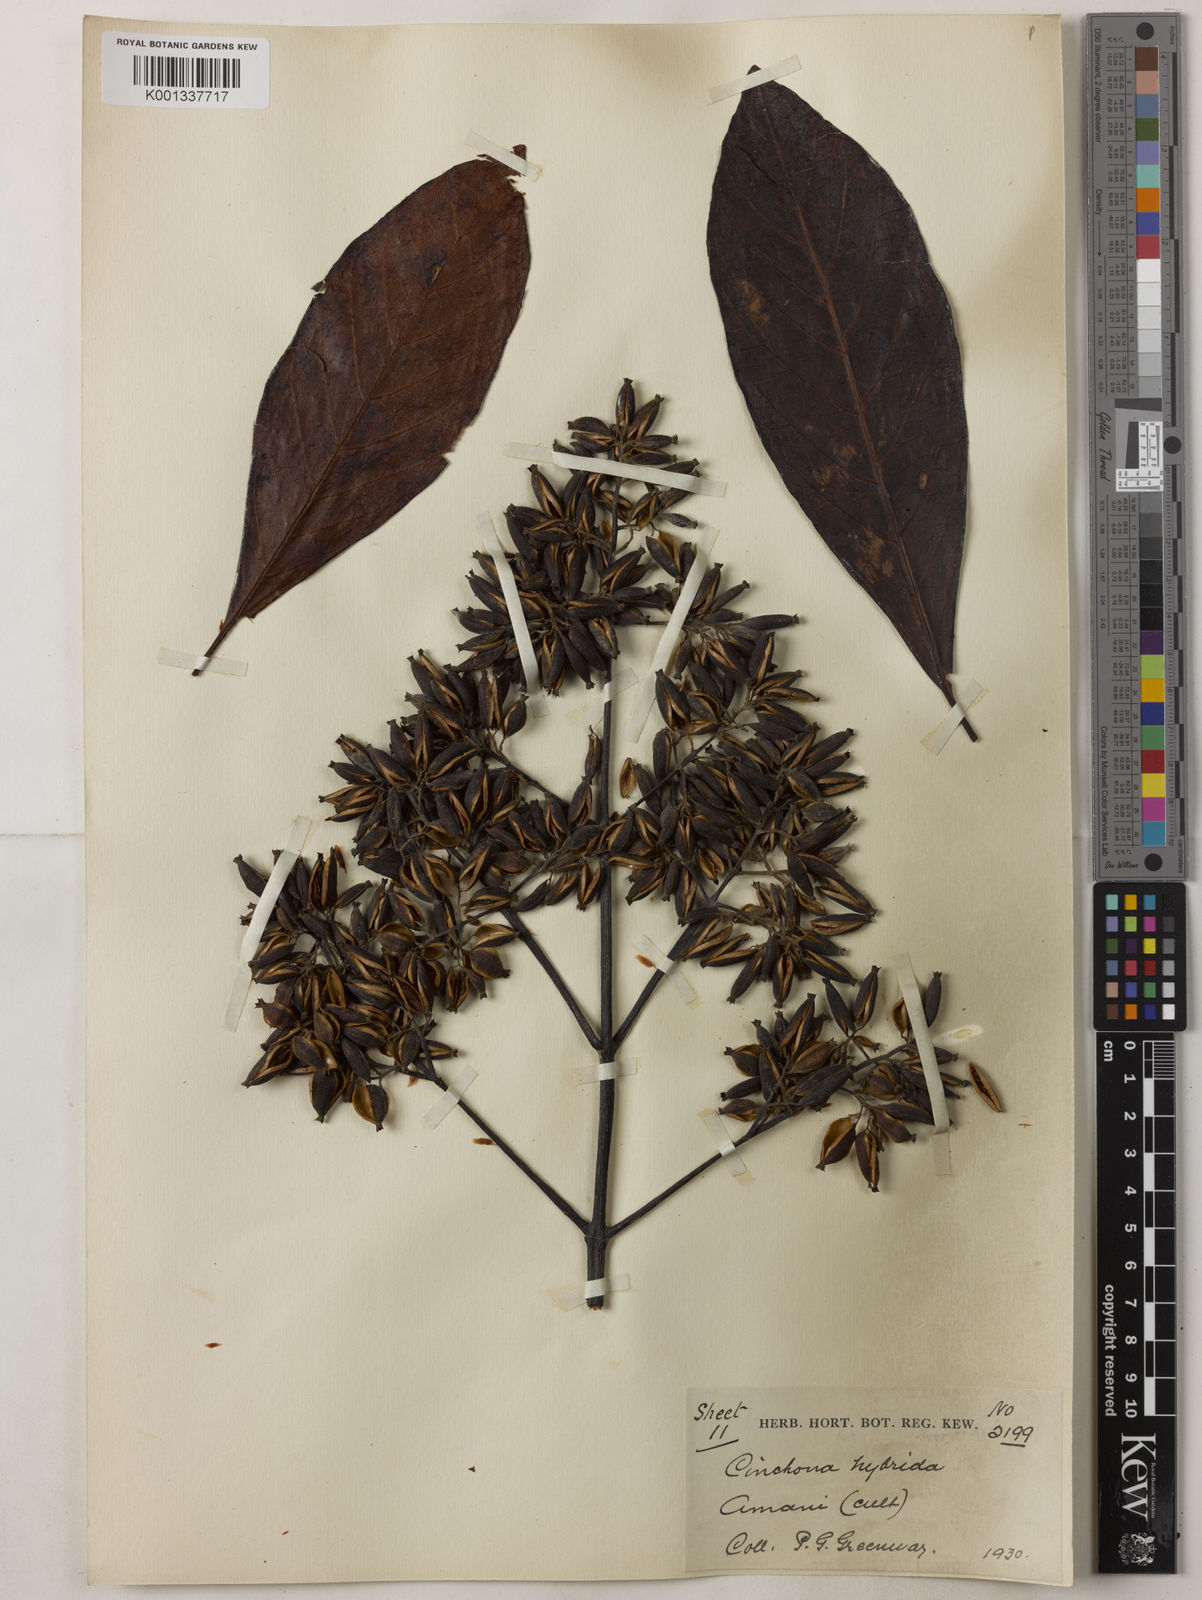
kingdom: Plantae
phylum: Tracheophyta
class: Magnoliopsida
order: Gentianales
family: Rubiaceae
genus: Cinchona
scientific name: Cinchona calisaya
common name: Ledgerbark
